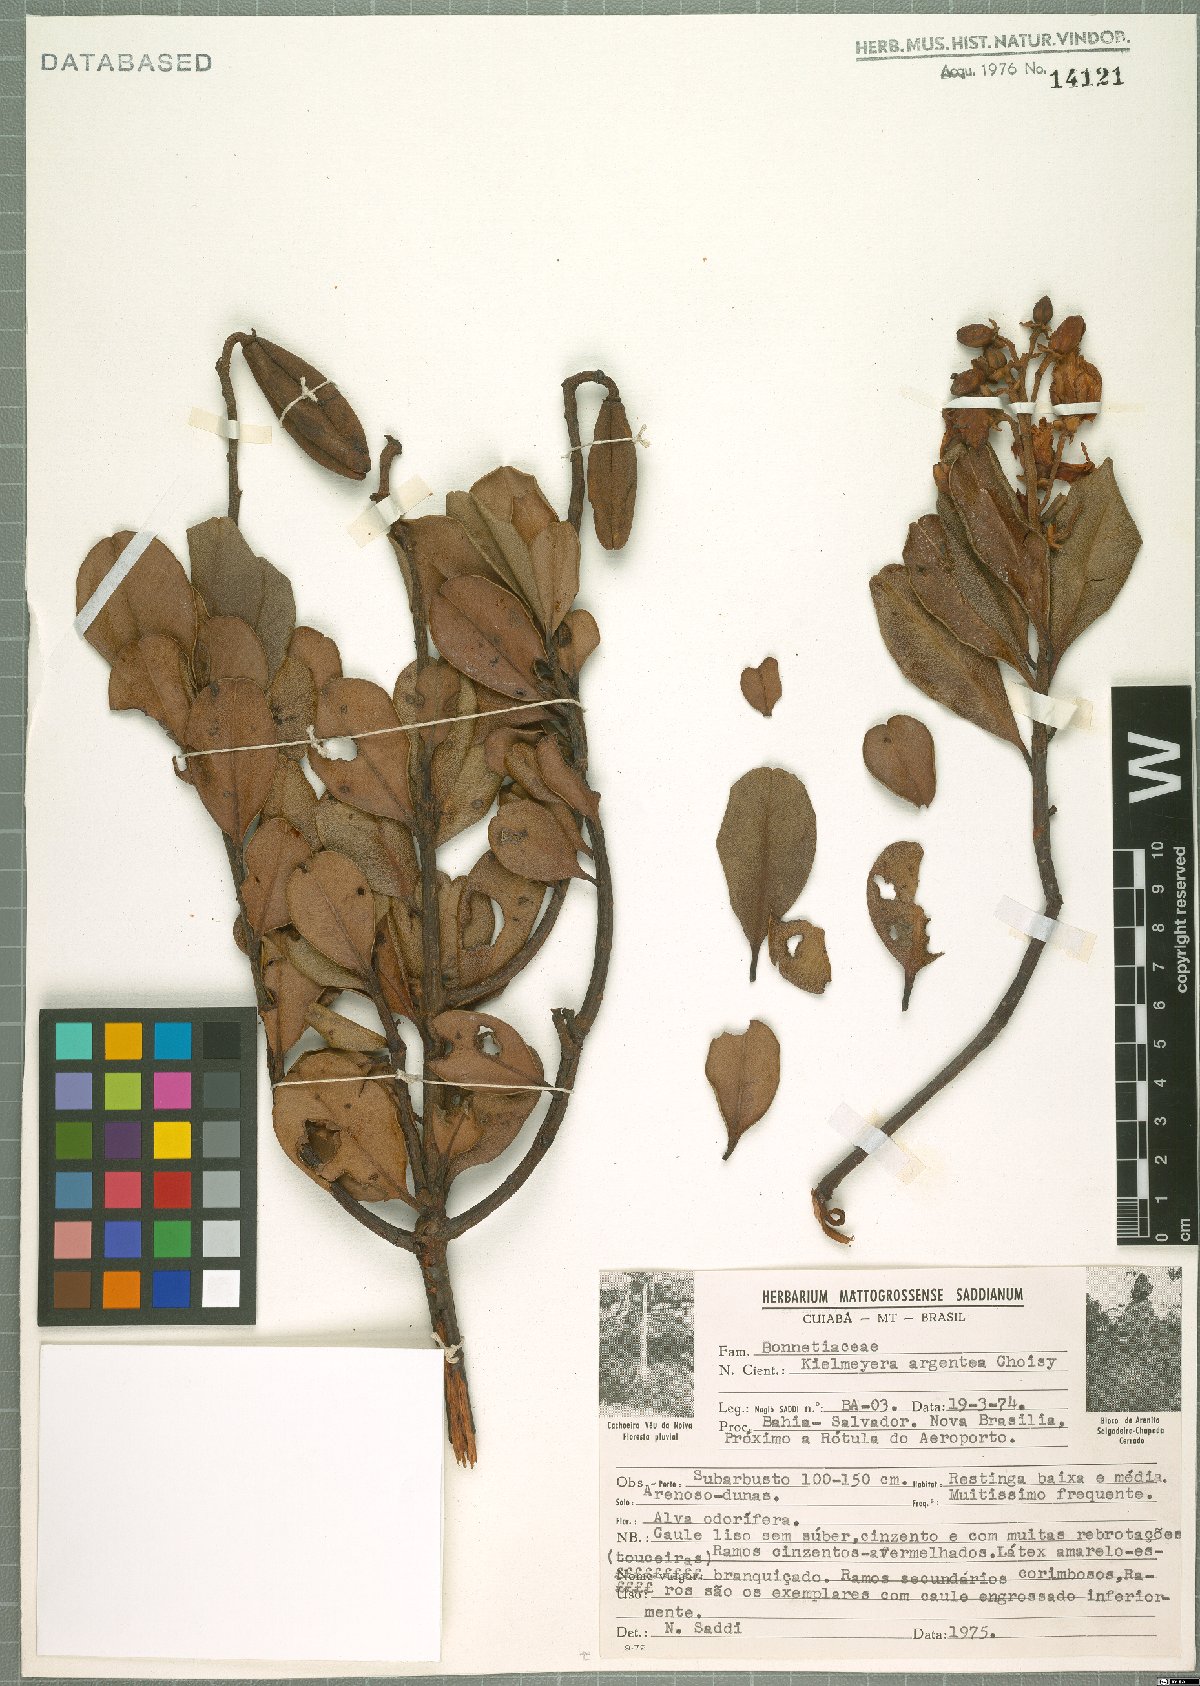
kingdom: Plantae
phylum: Tracheophyta
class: Magnoliopsida
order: Malpighiales
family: Calophyllaceae
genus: Kielmeyera
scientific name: Kielmeyera argentea
